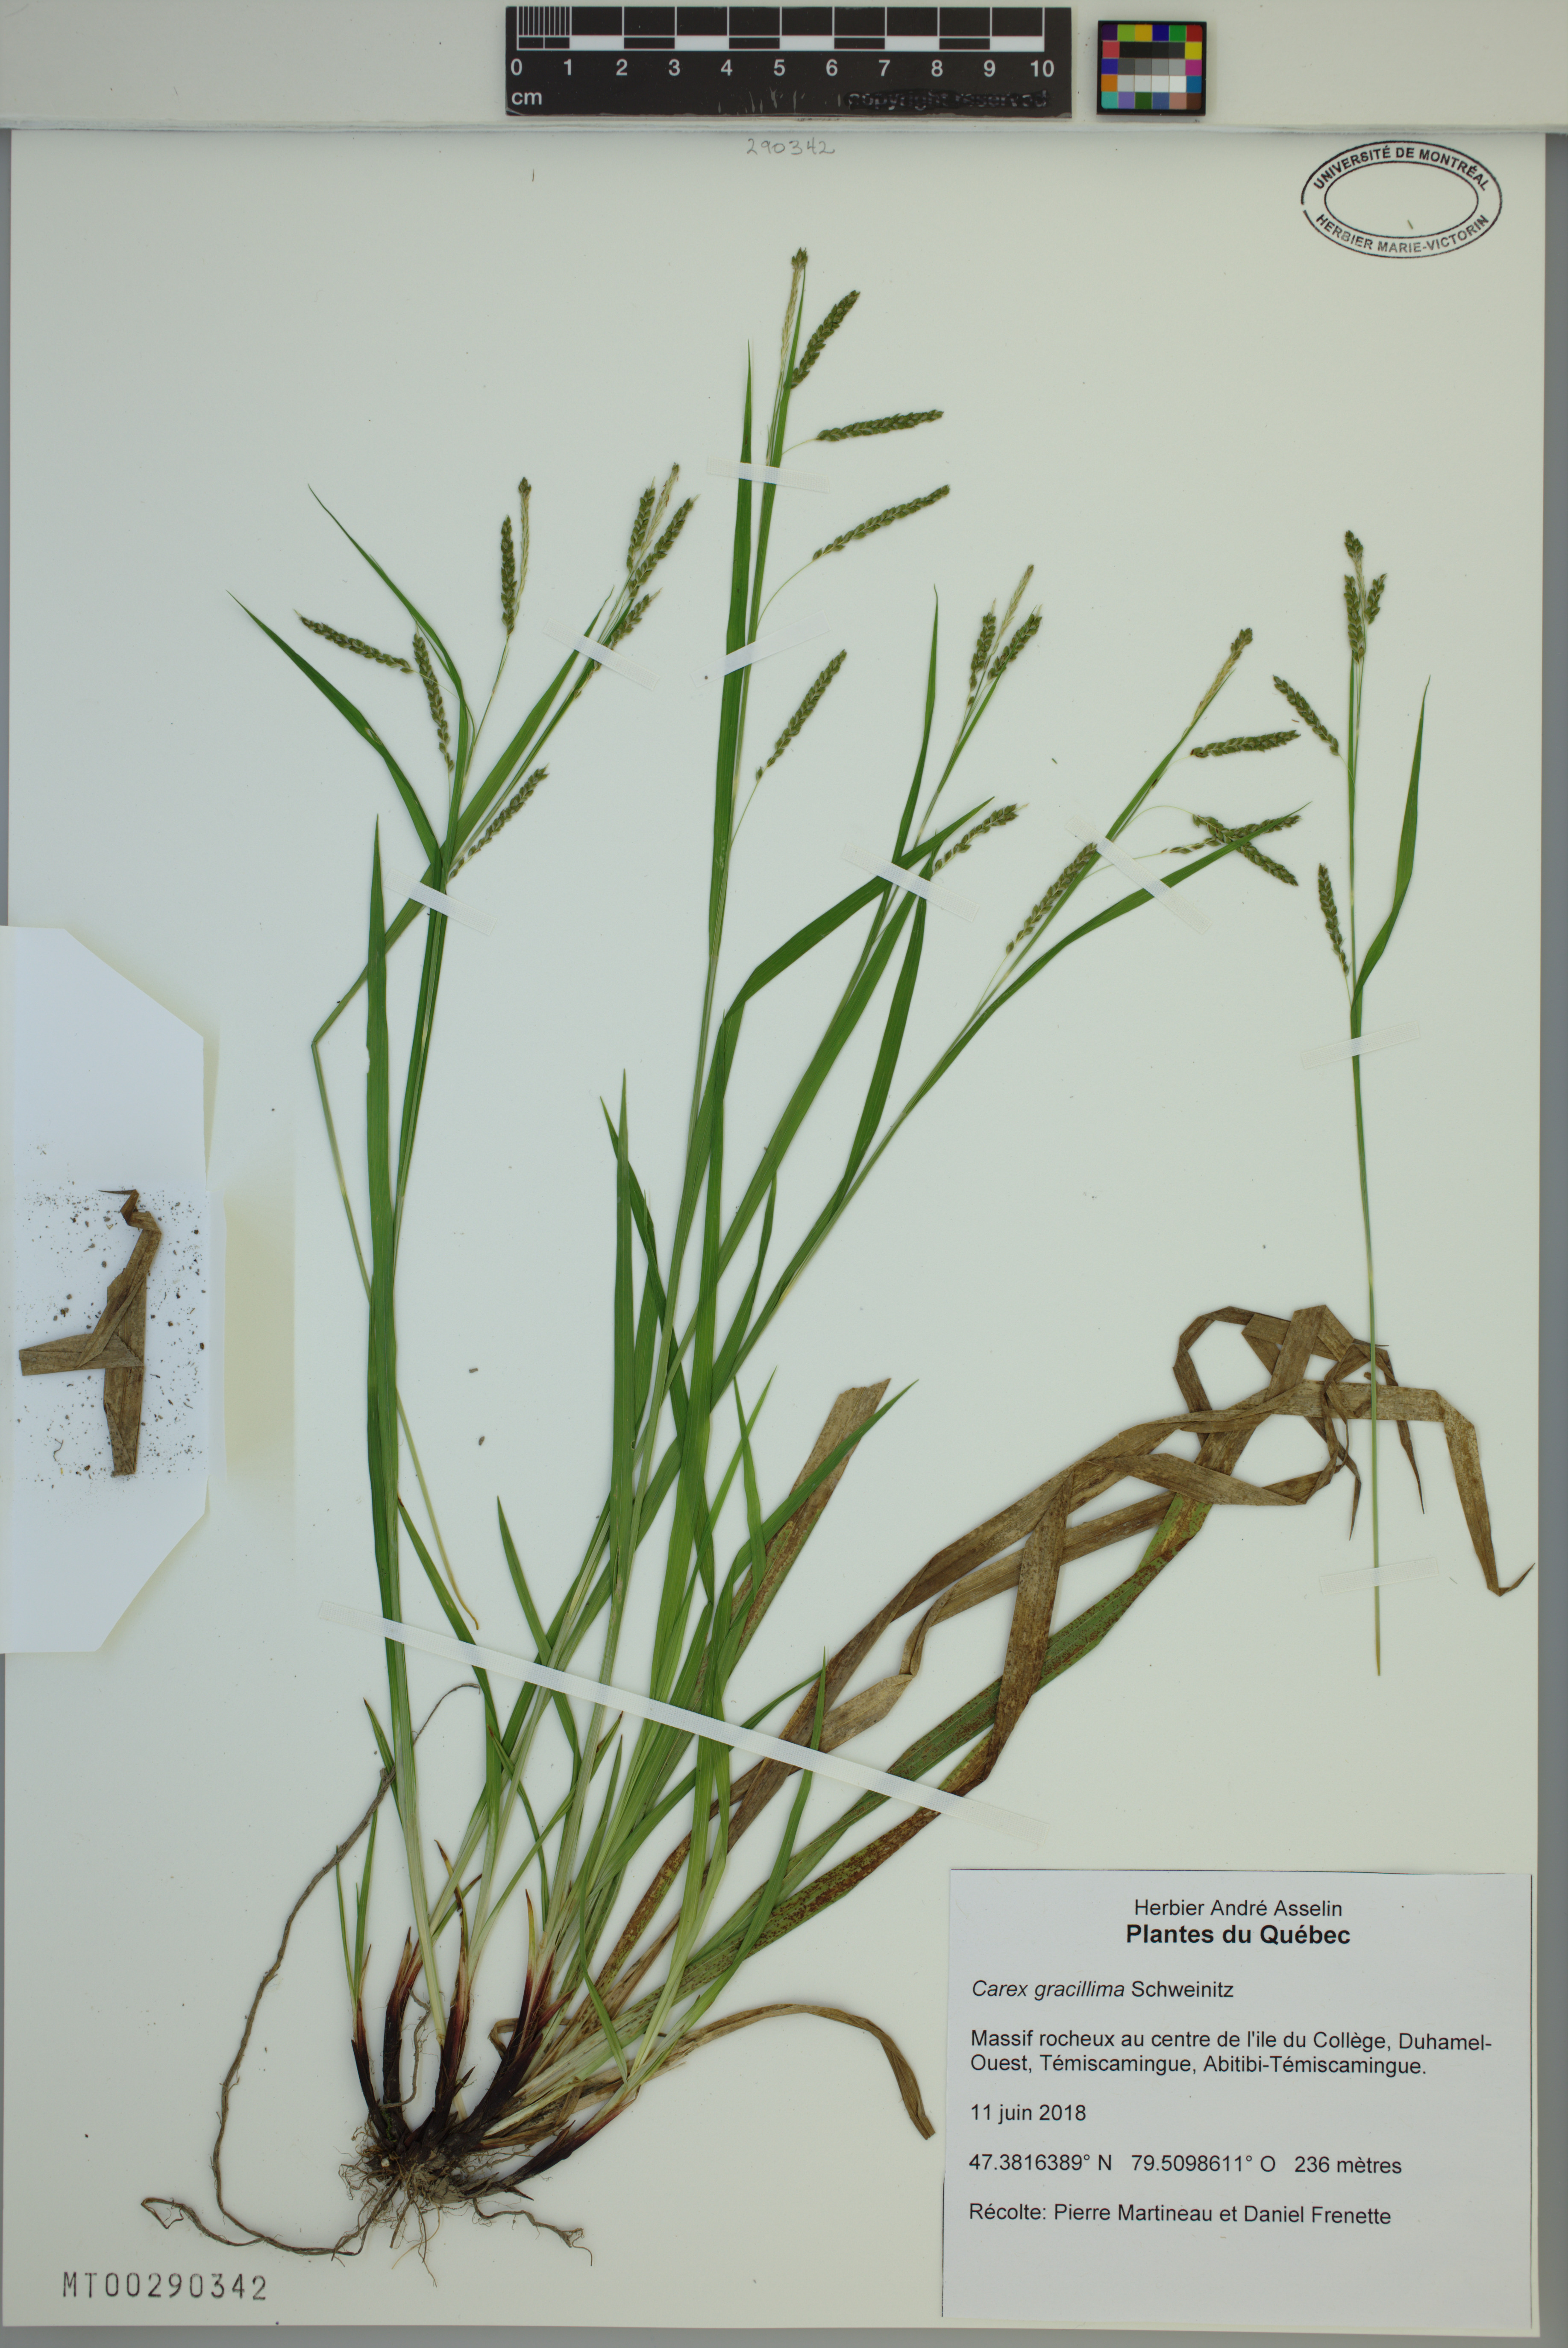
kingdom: Plantae
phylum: Tracheophyta
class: Liliopsida
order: Poales
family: Cyperaceae
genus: Carex
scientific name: Carex gracillima
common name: Graceful sedge
